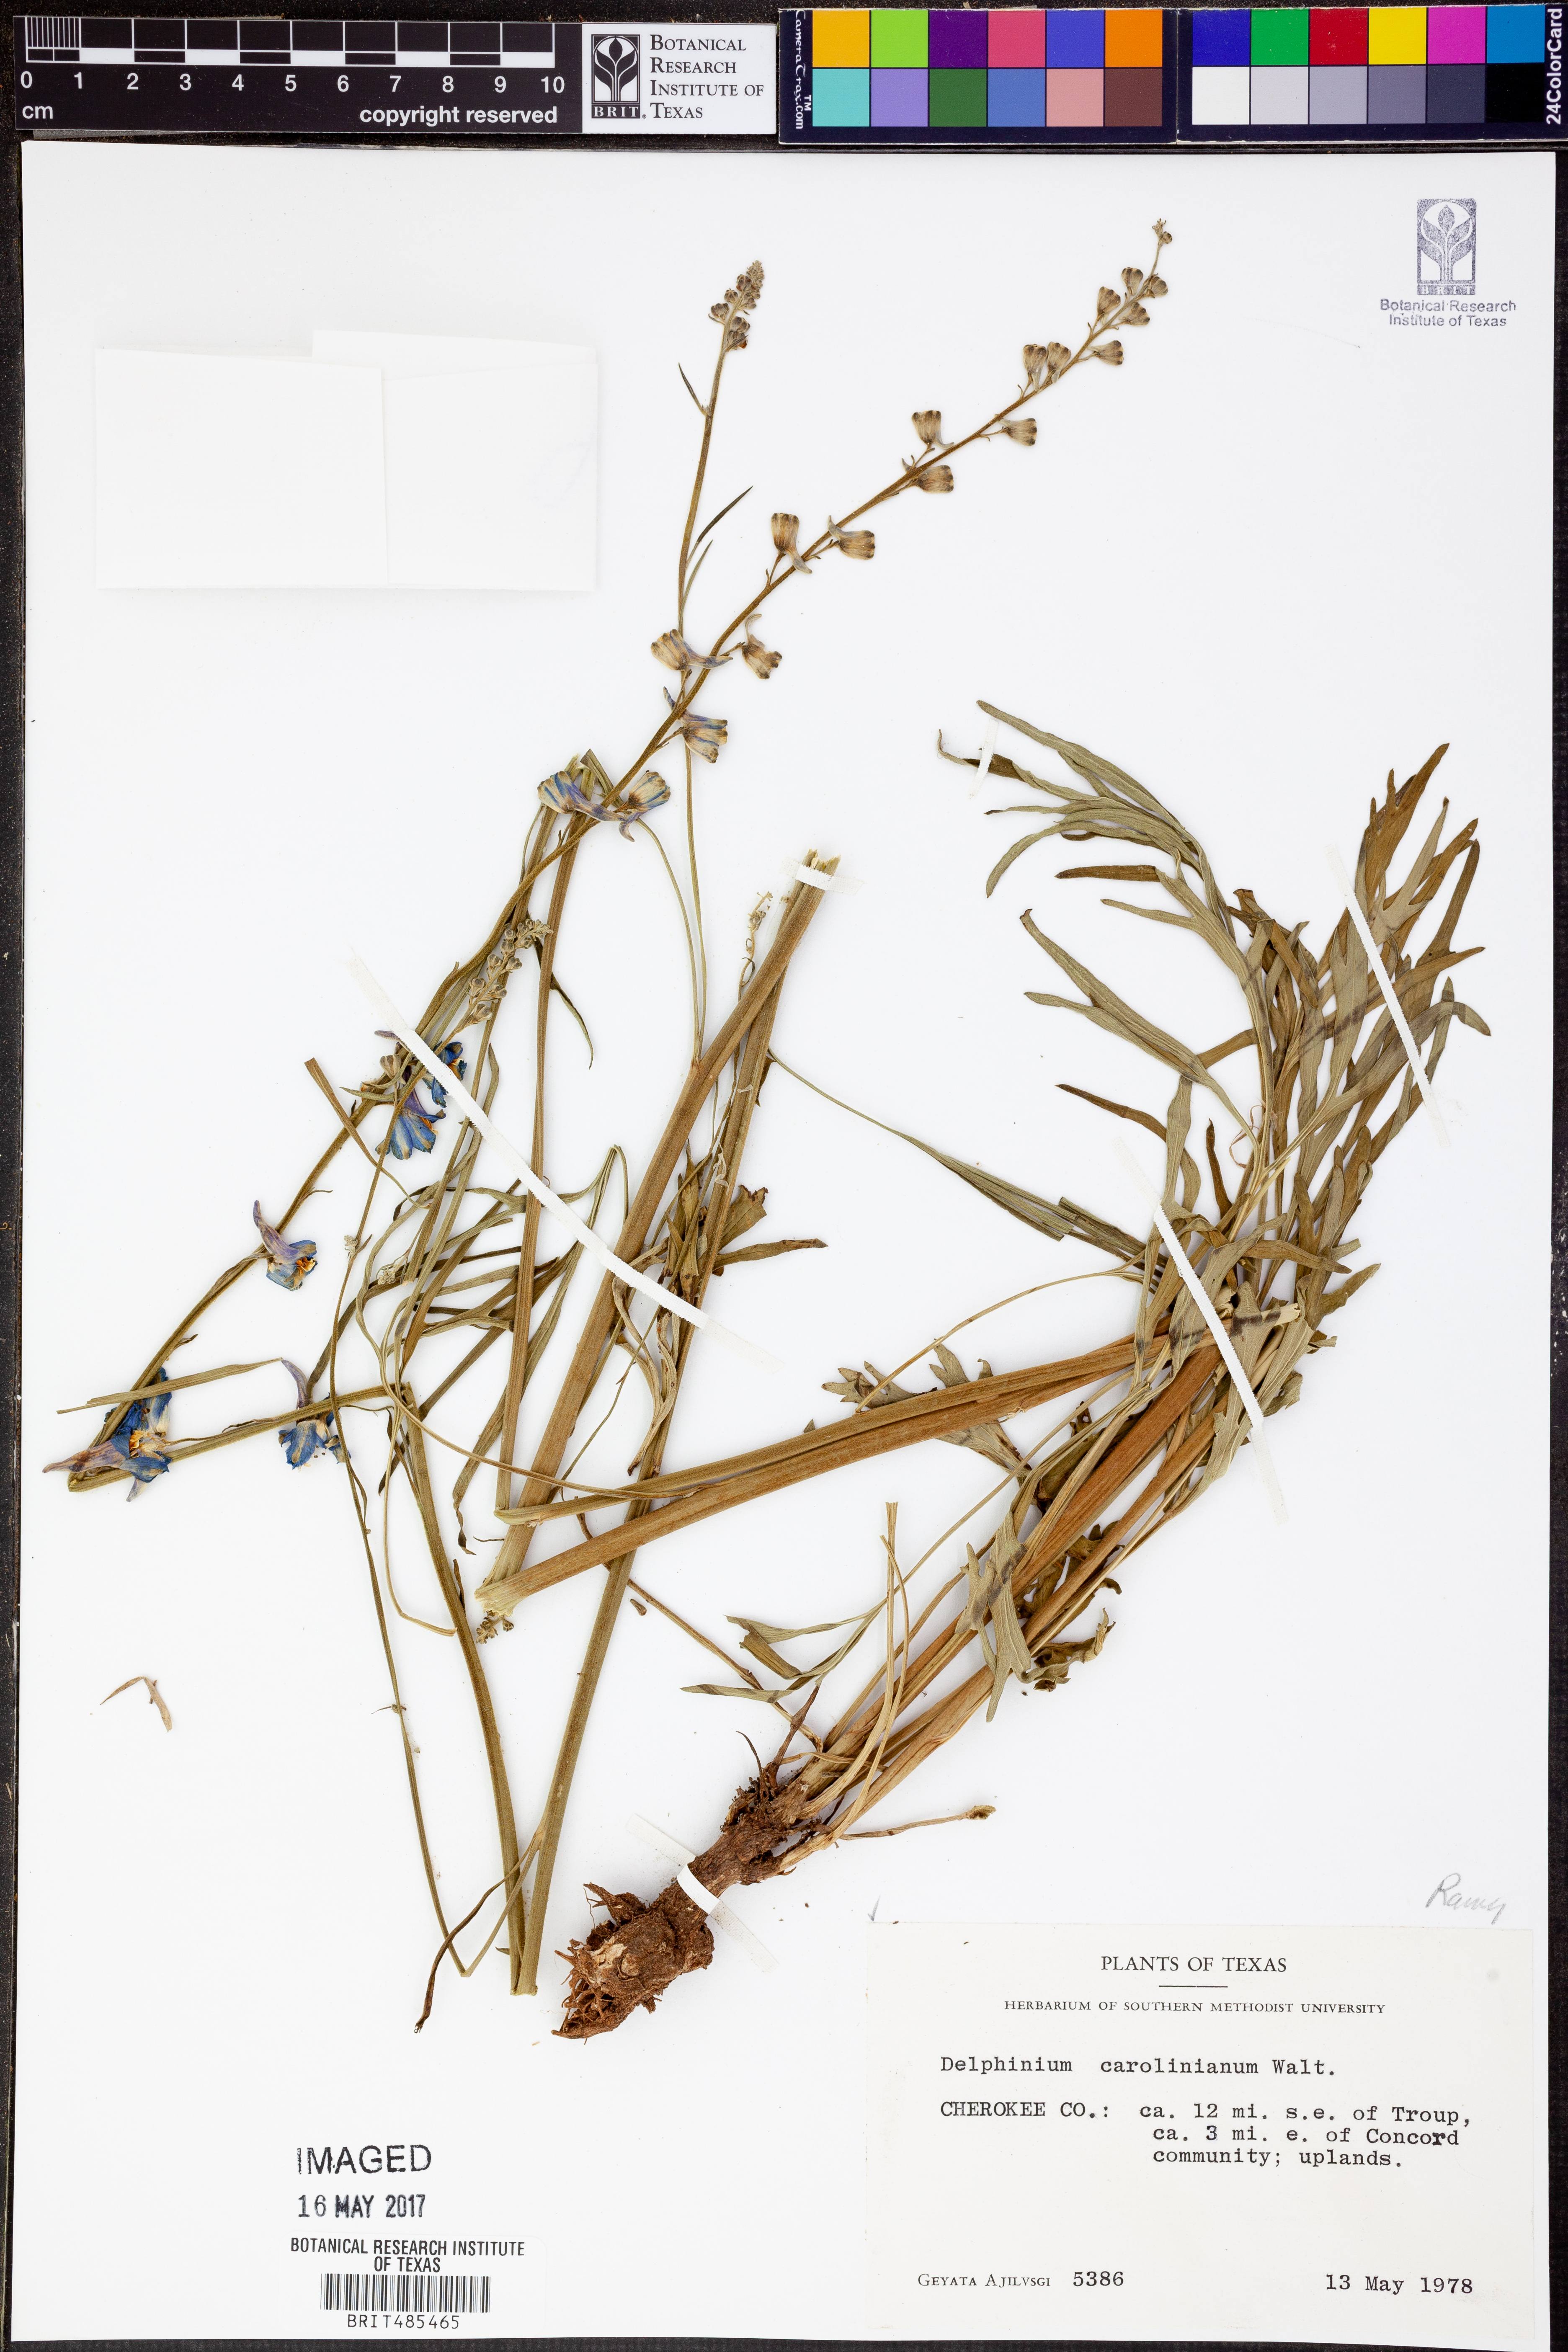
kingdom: Plantae
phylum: Tracheophyta
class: Magnoliopsida
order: Ranunculales
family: Ranunculaceae
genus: Delphinium
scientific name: Delphinium carolinianum
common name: Carolina larkspur
